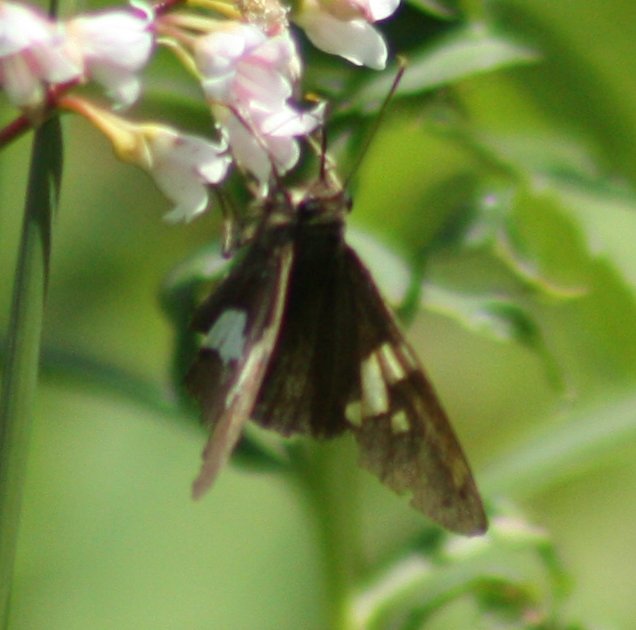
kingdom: Animalia
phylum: Arthropoda
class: Insecta
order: Lepidoptera
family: Hesperiidae
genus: Epargyreus
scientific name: Epargyreus clarus
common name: Silver-spotted Skipper
